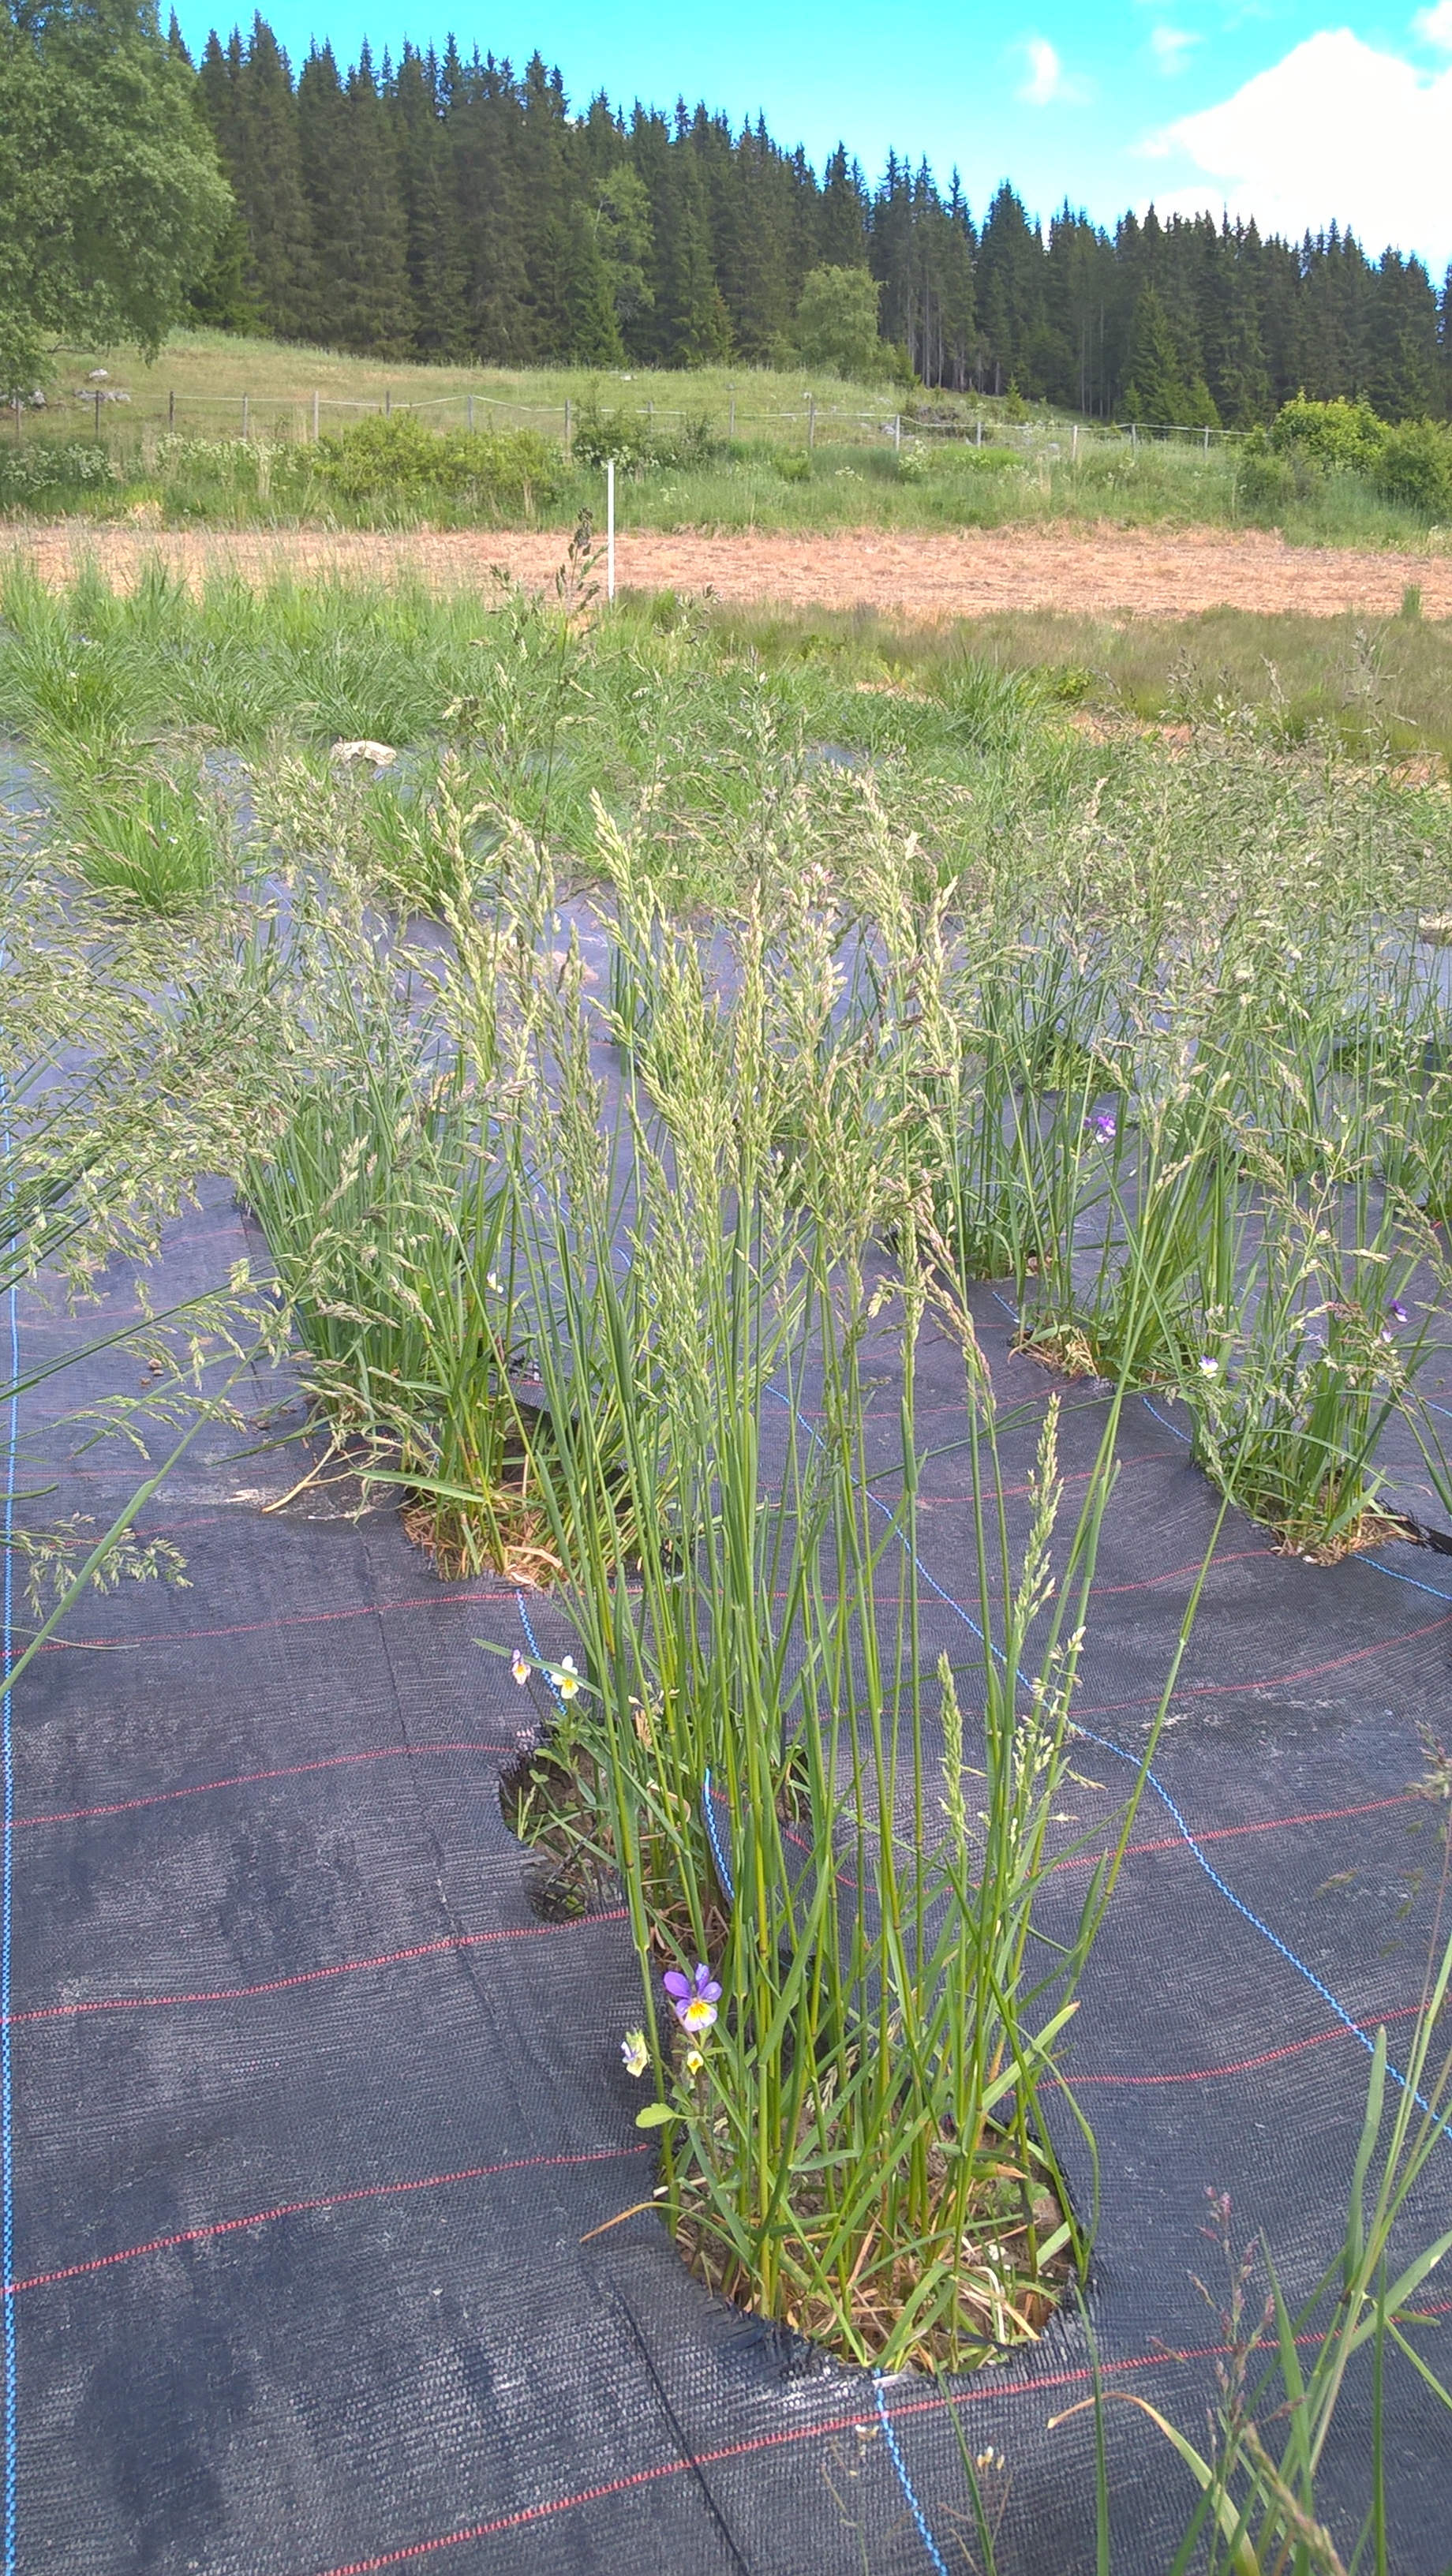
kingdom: Plantae
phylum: Tracheophyta
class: Liliopsida
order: Poales
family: Poaceae
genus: Poa
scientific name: Poa pratensis
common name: Kentucky bluegrass
